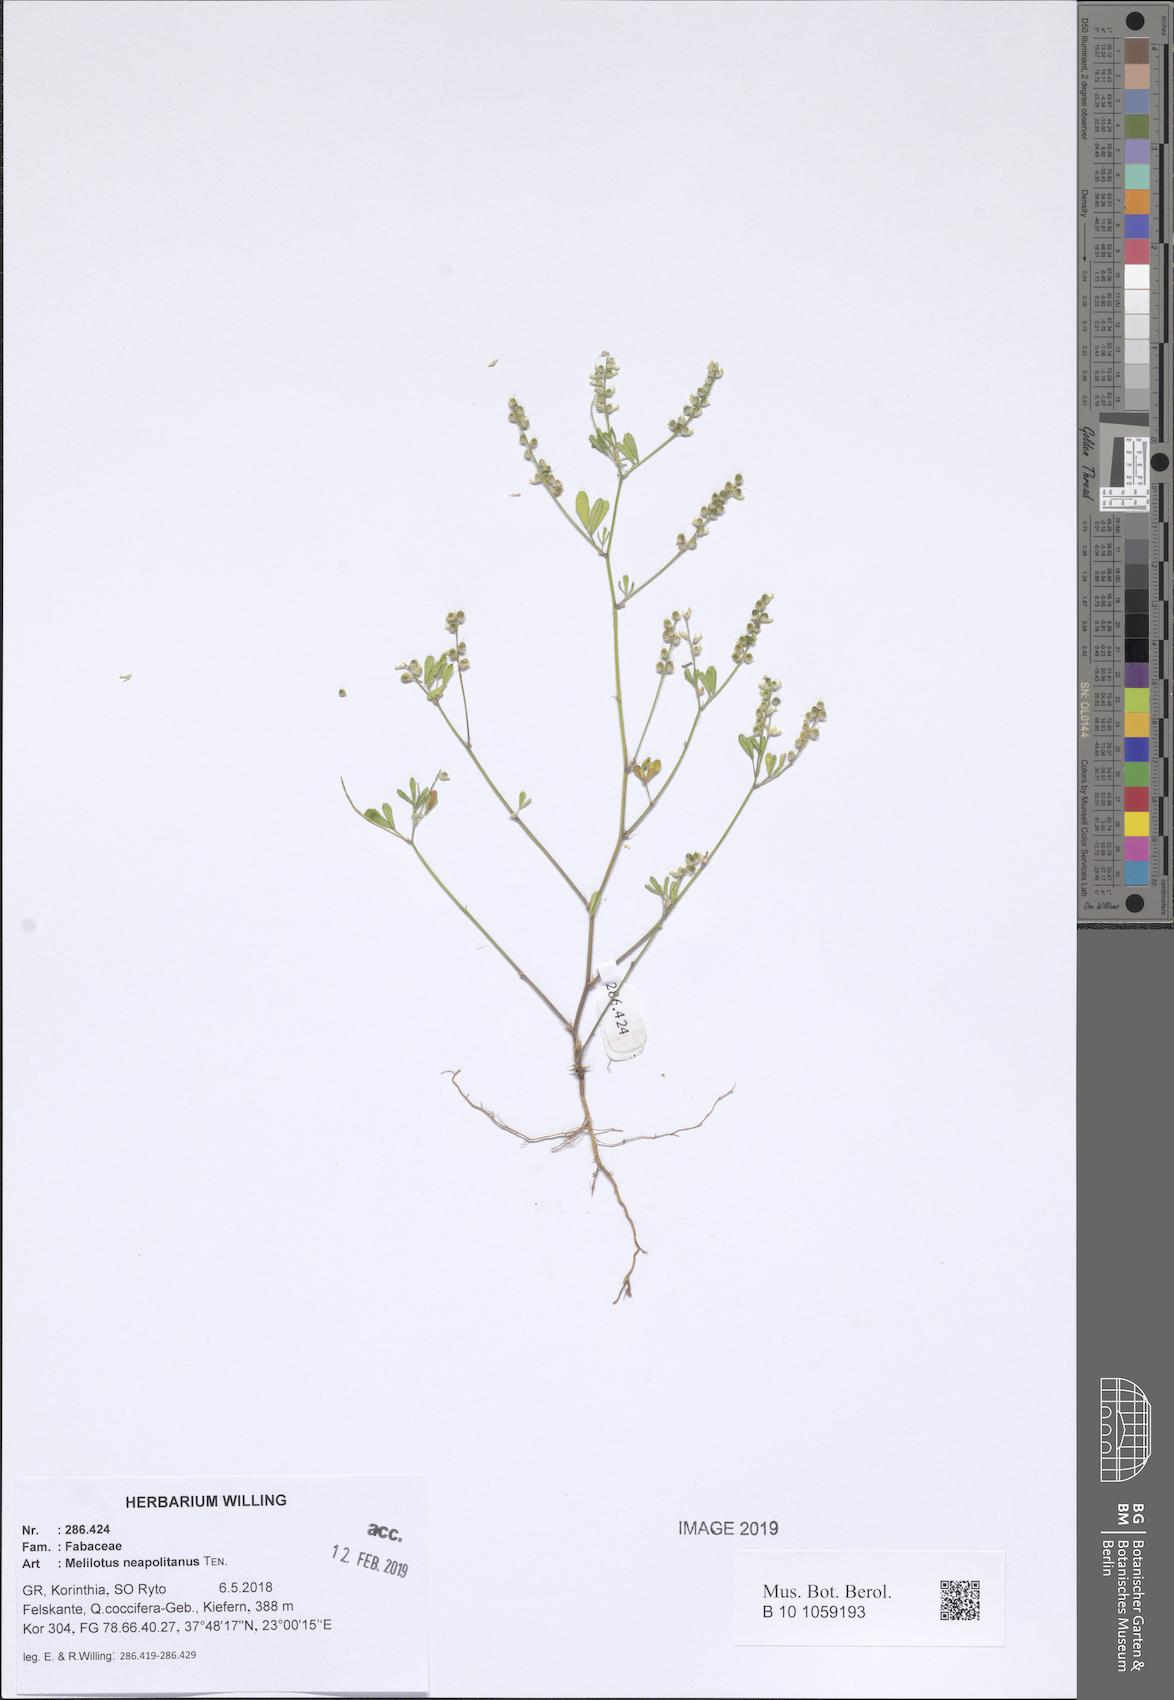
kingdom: Plantae
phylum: Tracheophyta
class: Magnoliopsida
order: Fabales
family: Fabaceae
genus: Melilotus
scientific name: Melilotus neapolitanus
